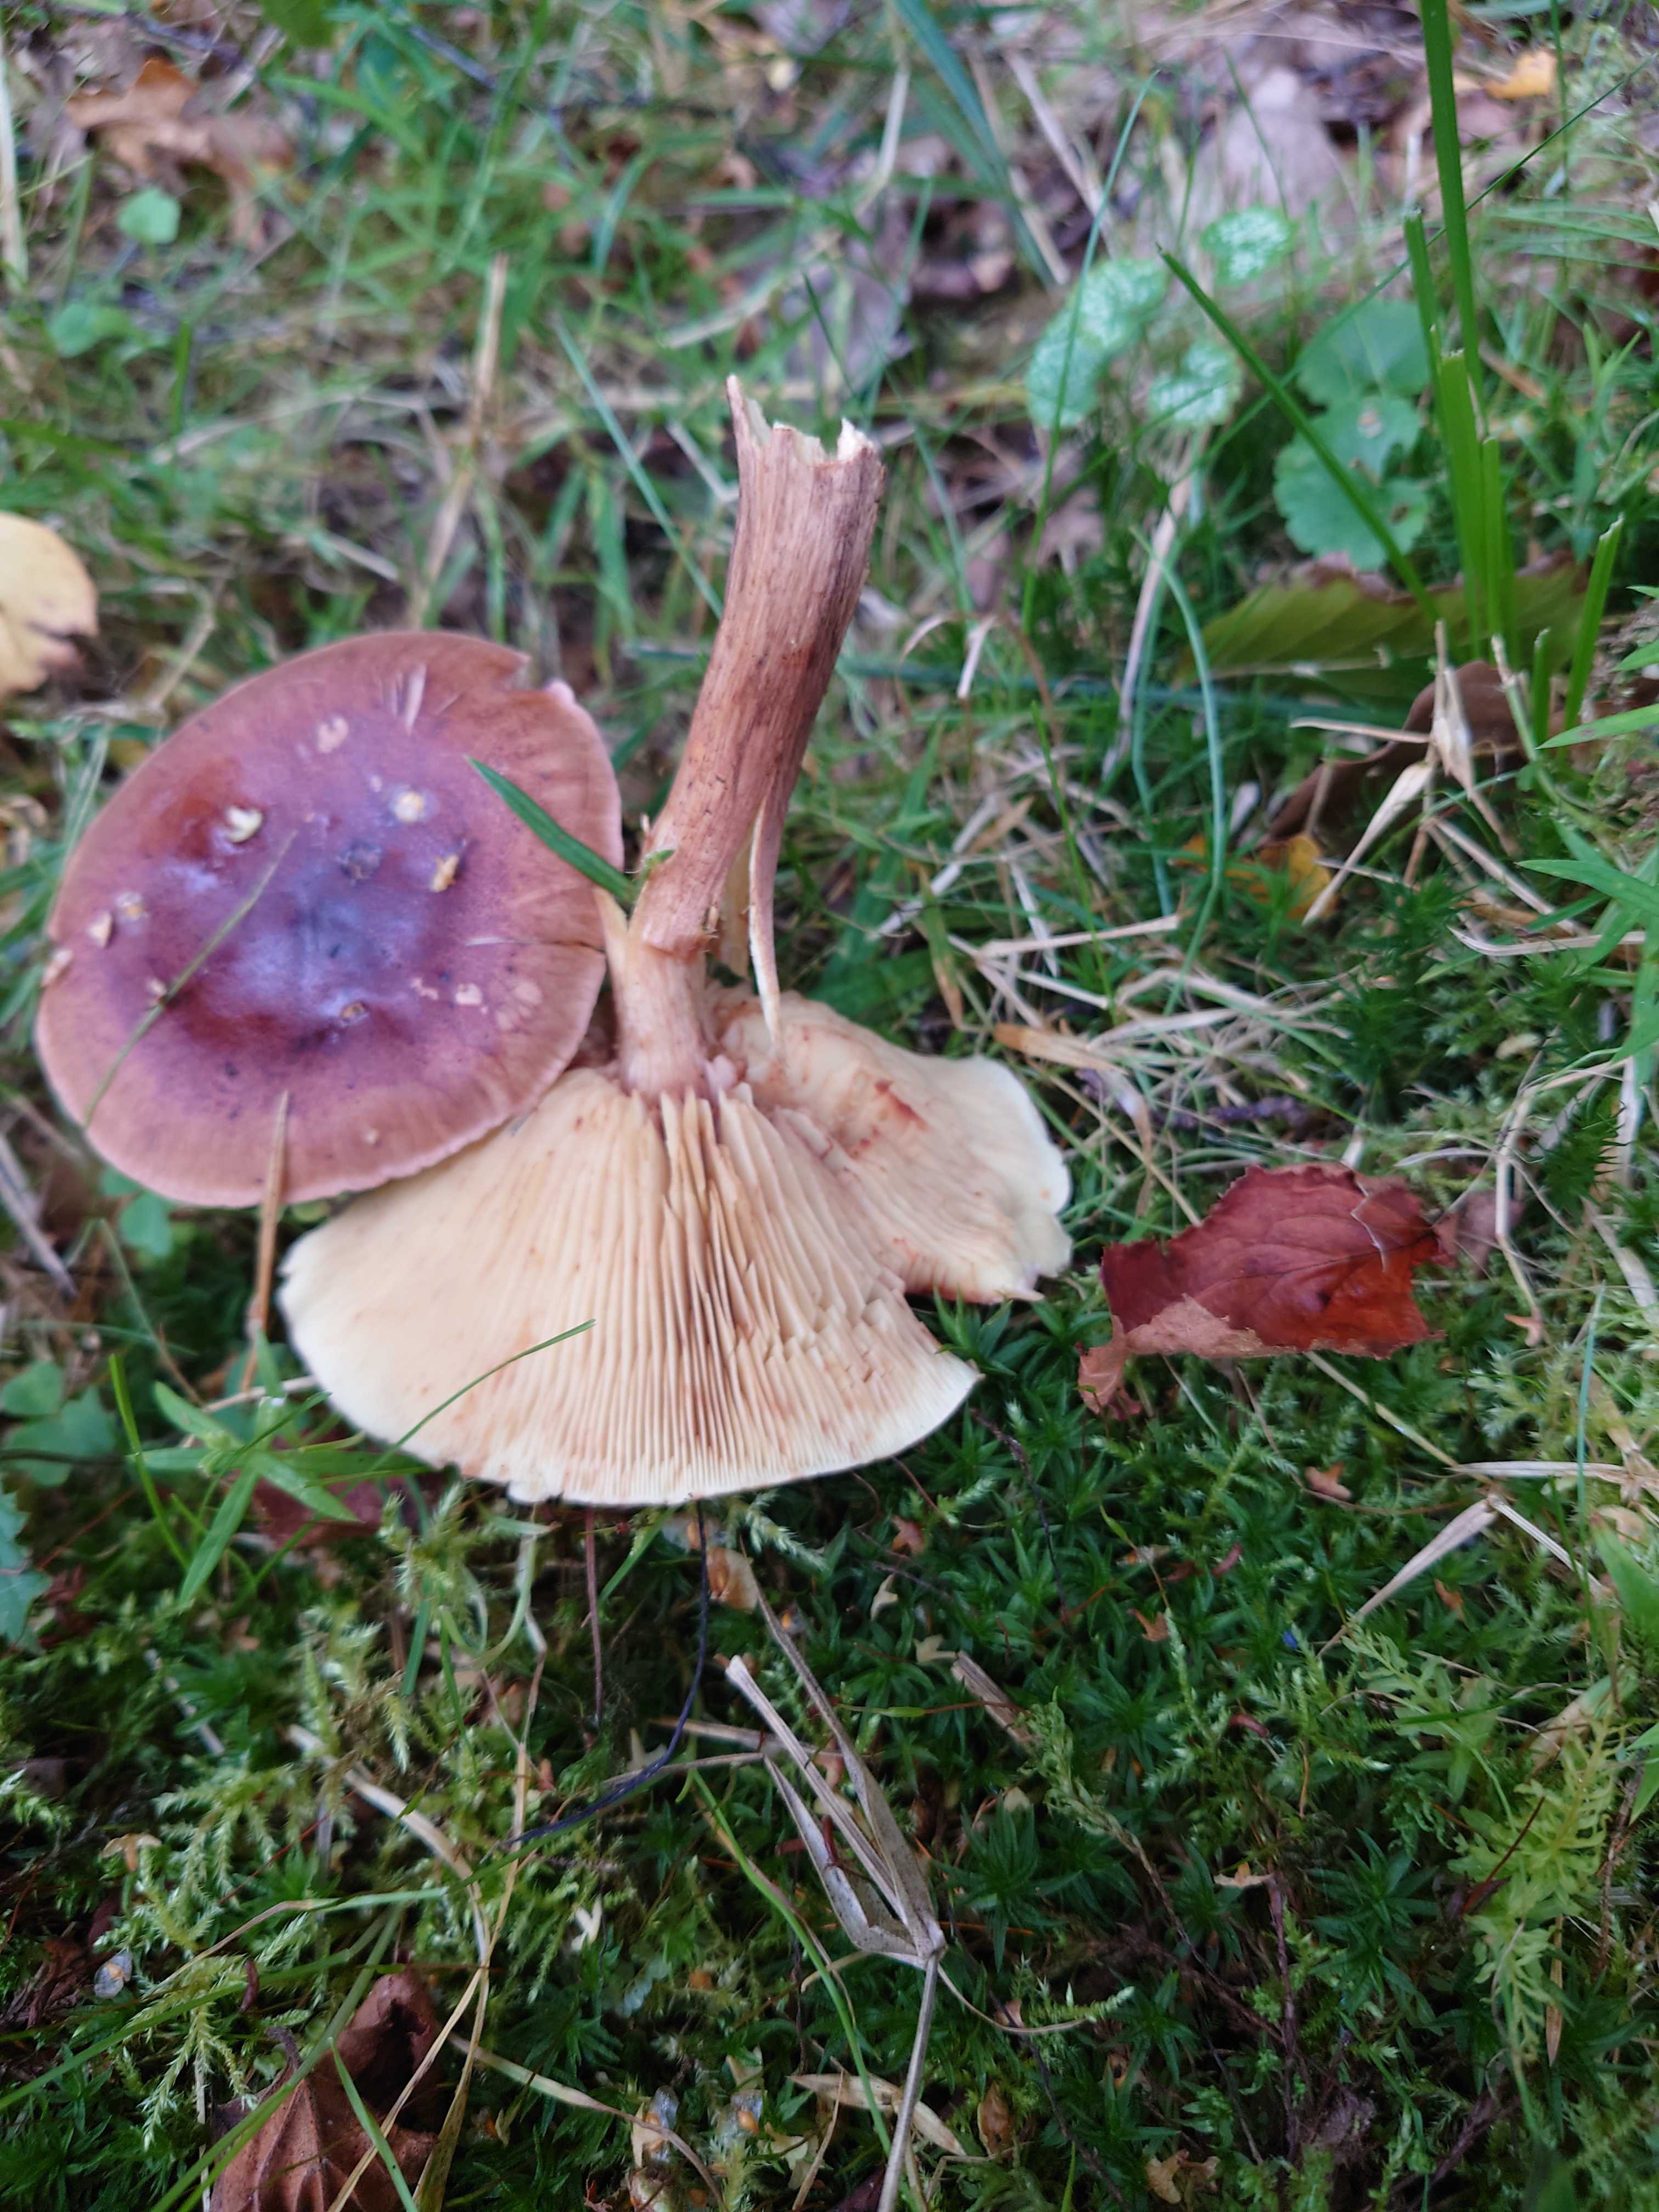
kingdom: Fungi
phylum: Basidiomycota
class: Agaricomycetes
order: Agaricales
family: Tricholomataceae
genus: Tricholoma
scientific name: Tricholoma fulvum
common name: birke-ridderhat
